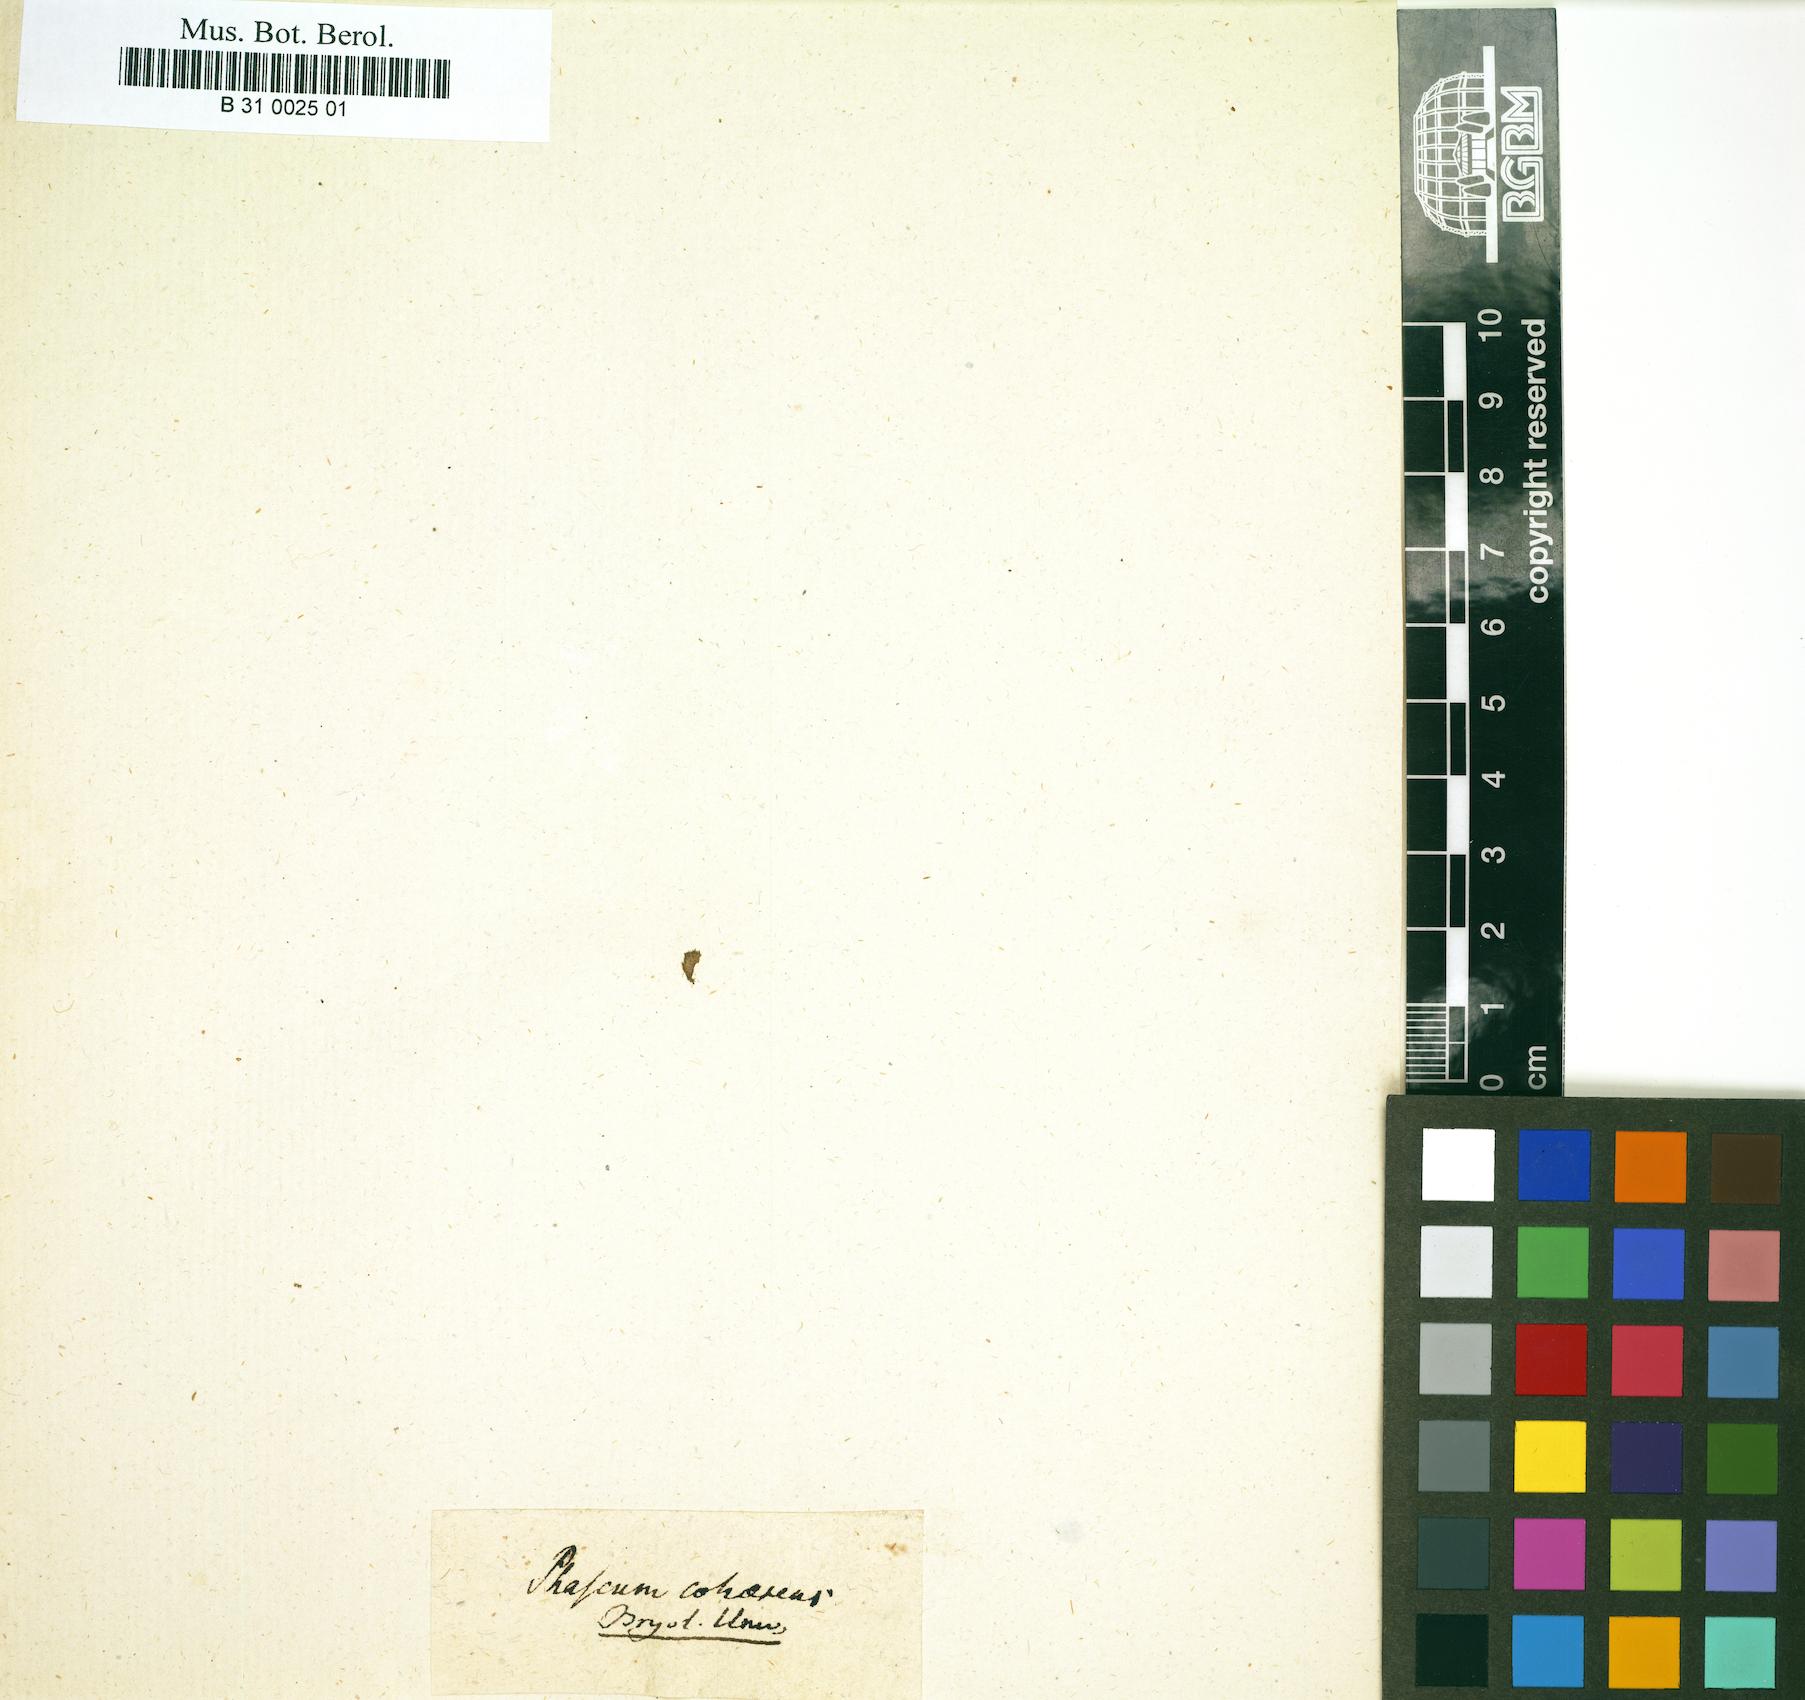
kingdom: Plantae
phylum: Bryophyta
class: Bryopsida
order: Pottiales
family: Ephemeraceae
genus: Ephemerum
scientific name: Ephemerum cohaerens
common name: Clustered earth moss
